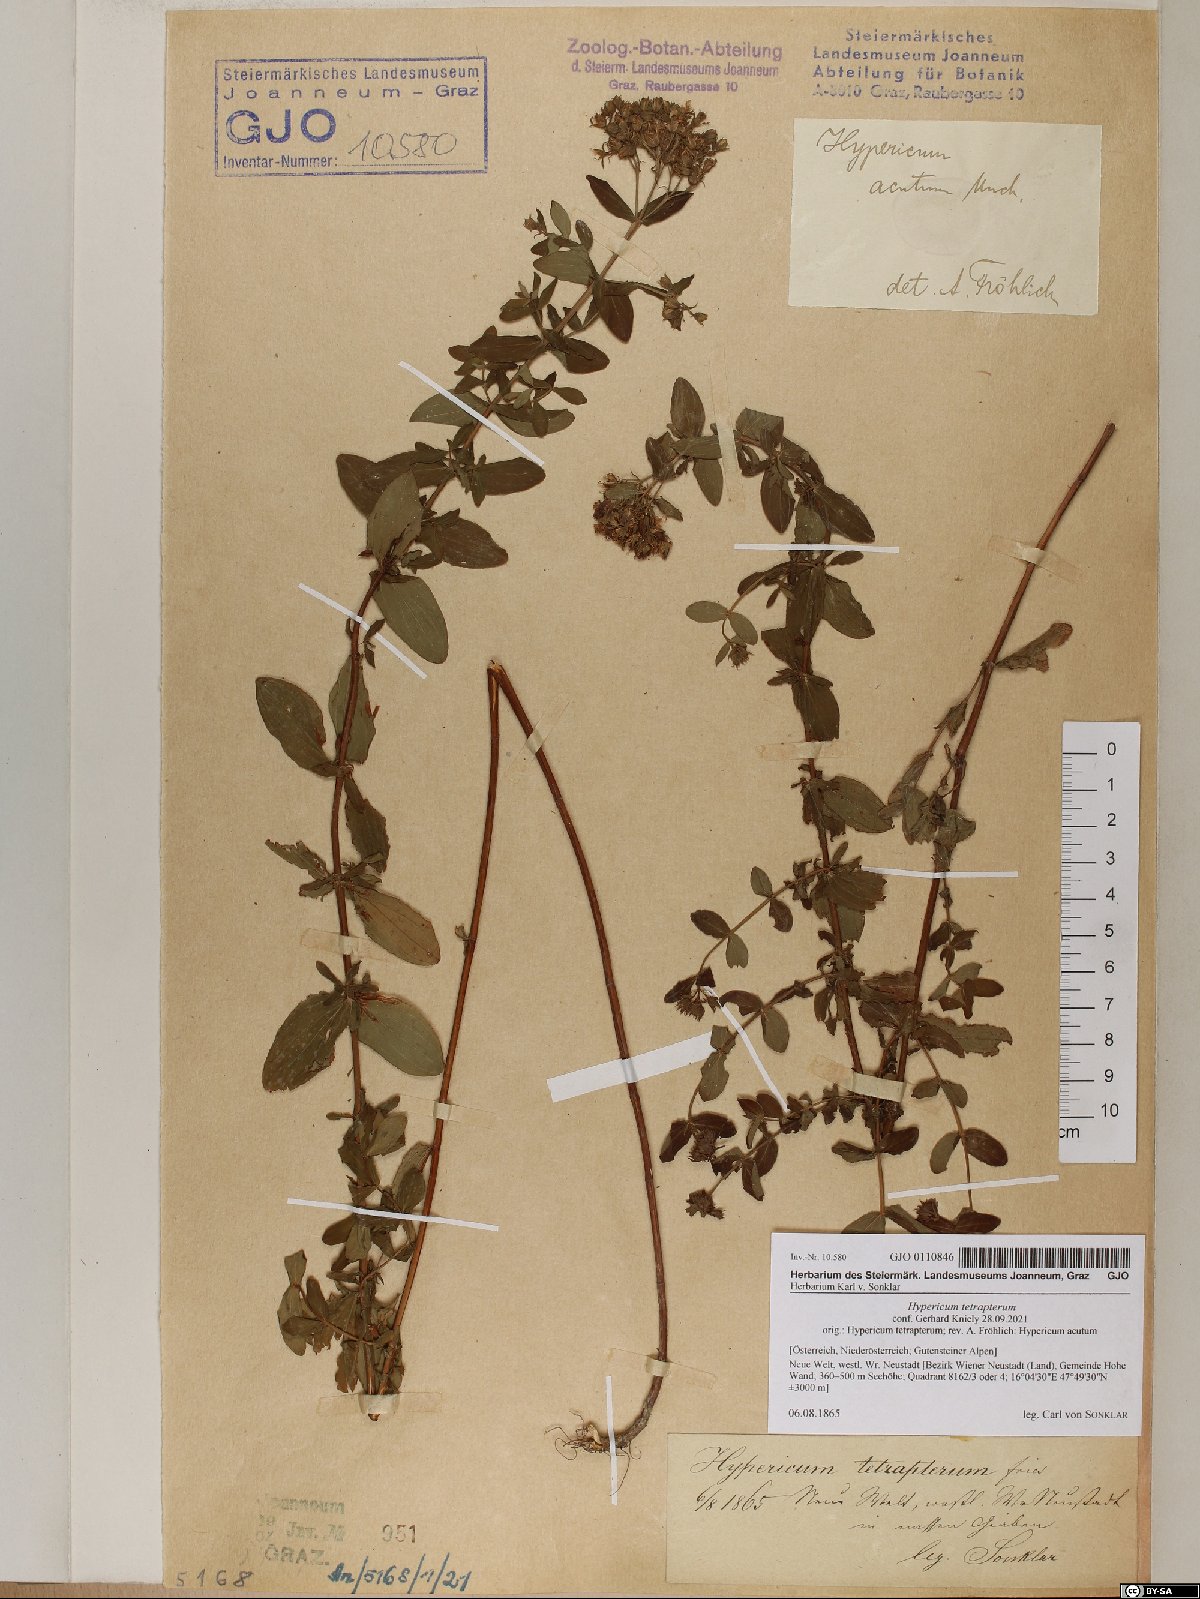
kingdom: Plantae
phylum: Tracheophyta
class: Magnoliopsida
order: Malpighiales
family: Hypericaceae
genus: Hypericum
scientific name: Hypericum tetrapterum
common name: Square-stalked st. john's-wort
